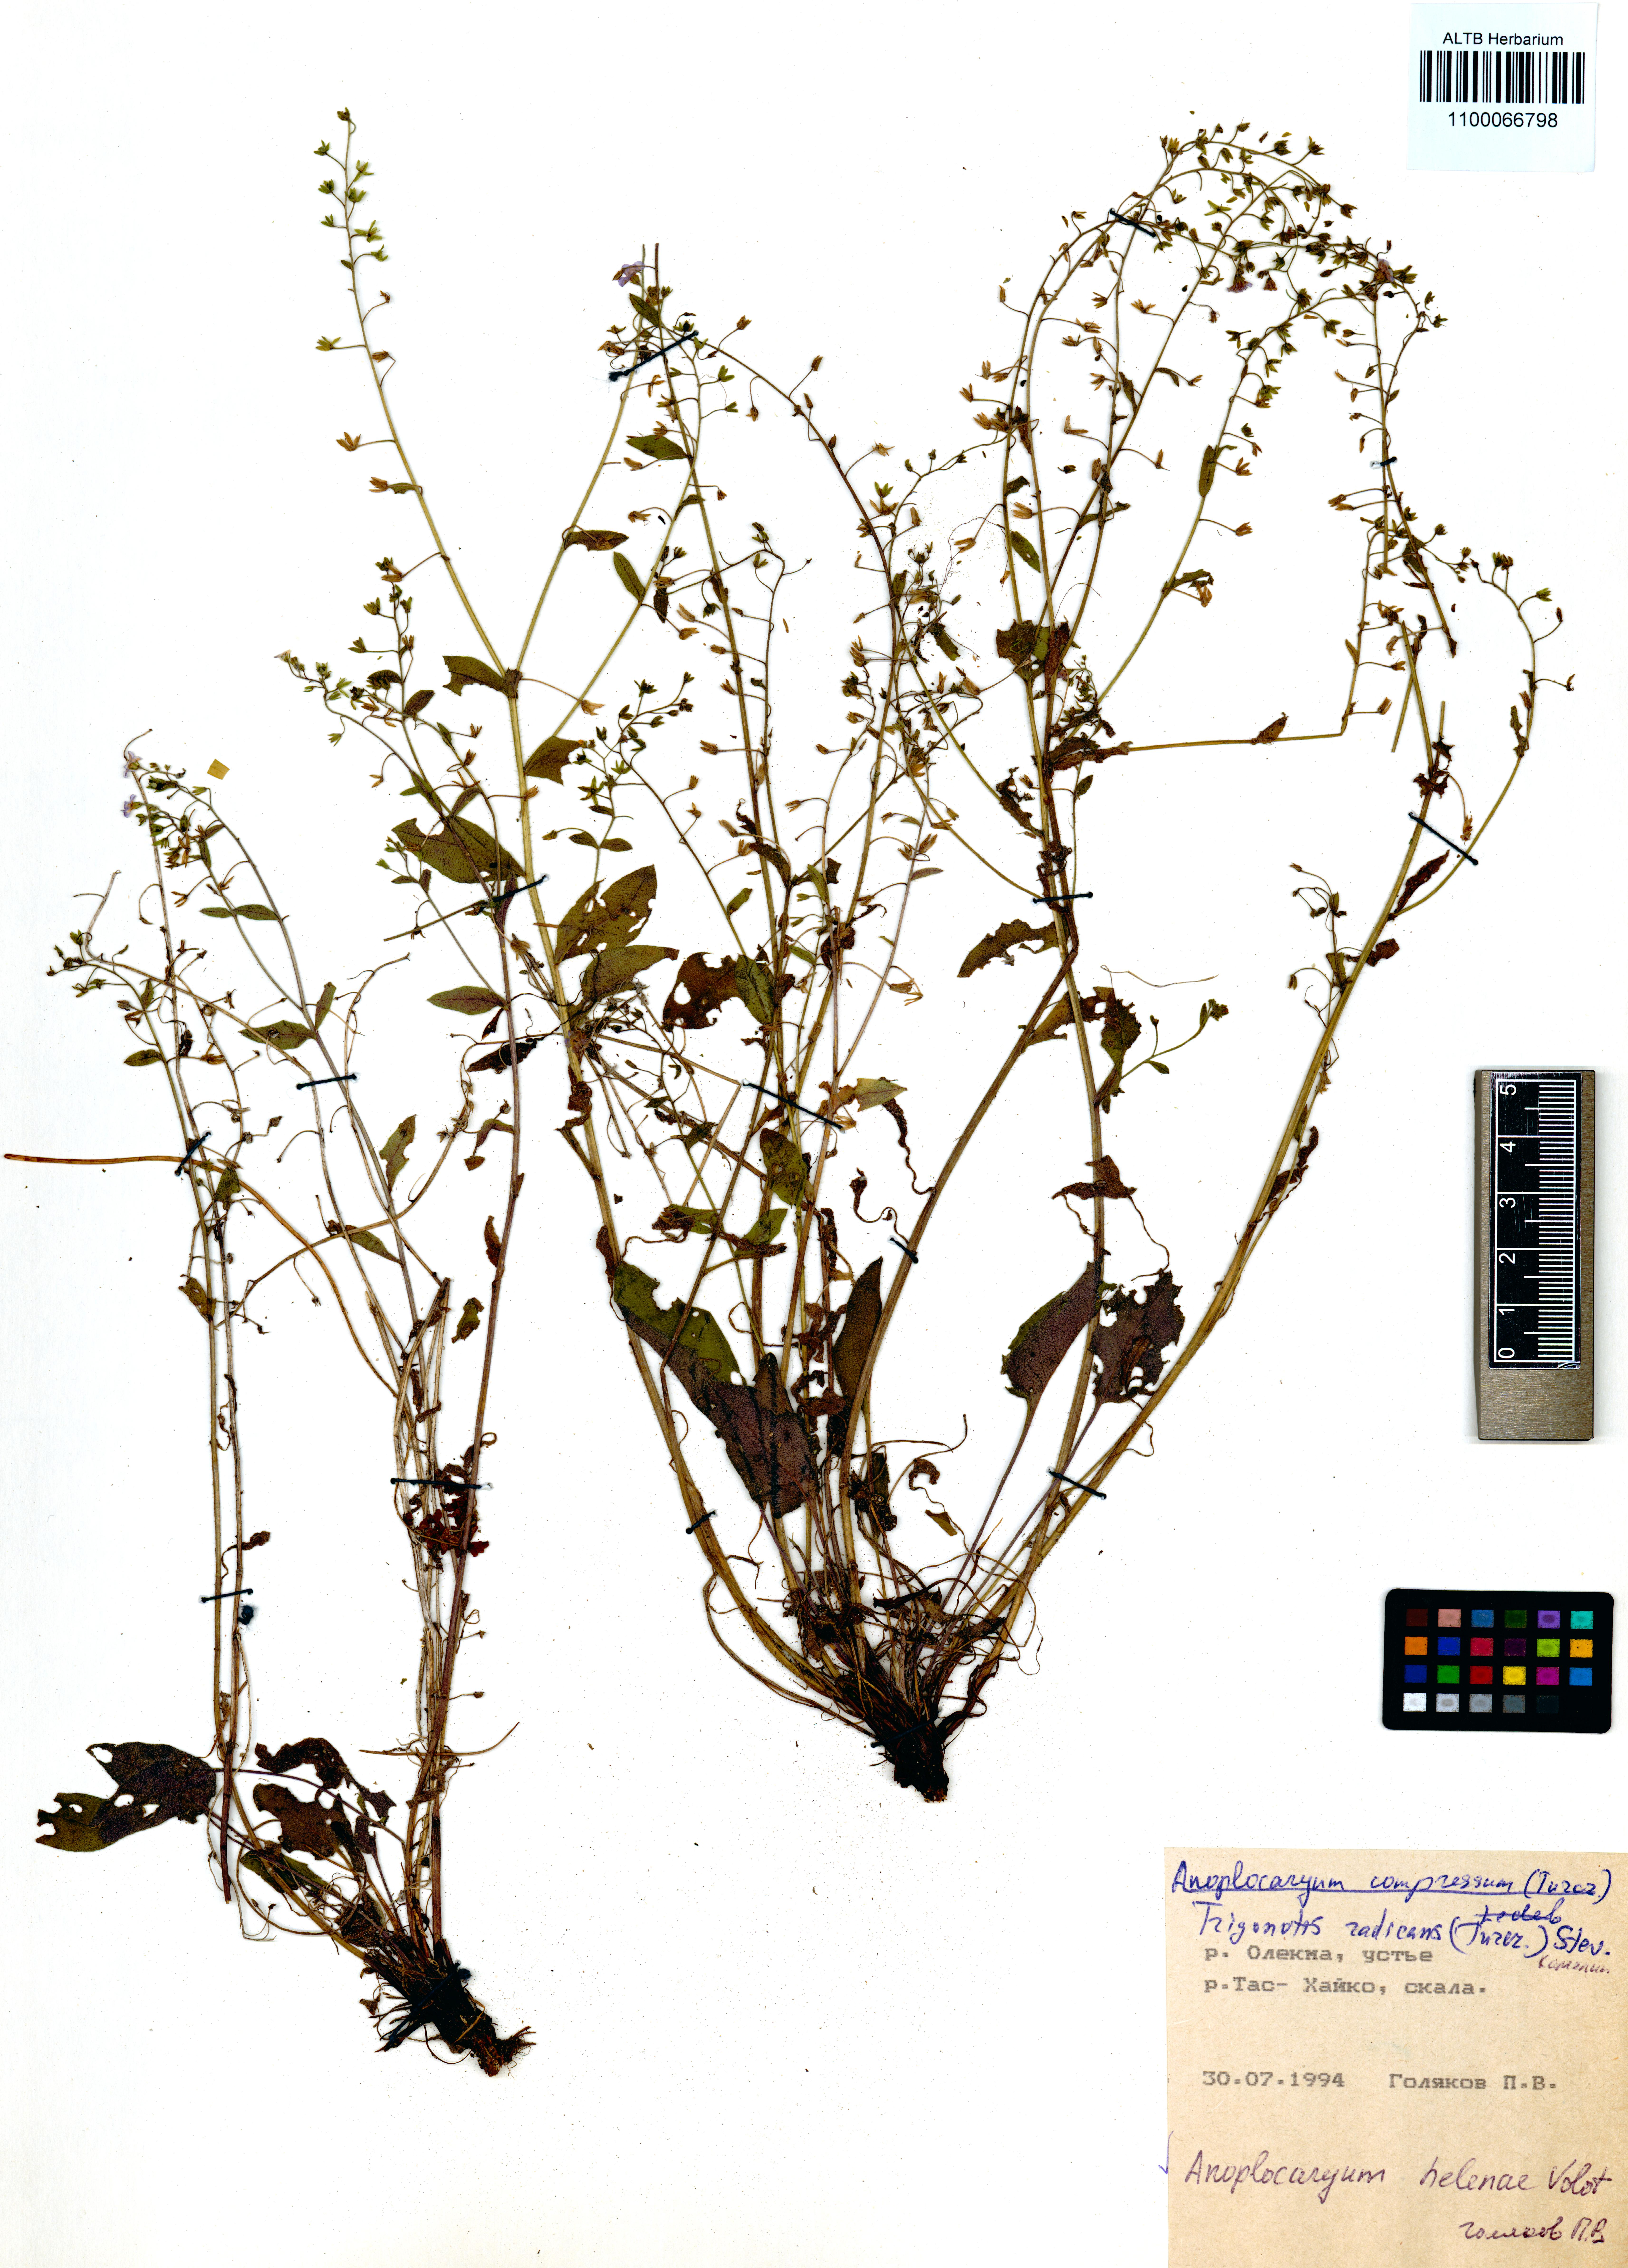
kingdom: Plantae
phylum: Tracheophyta
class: Magnoliopsida
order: Boraginales
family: Boraginaceae
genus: Anoplocaryum
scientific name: Anoplocaryum helenae
